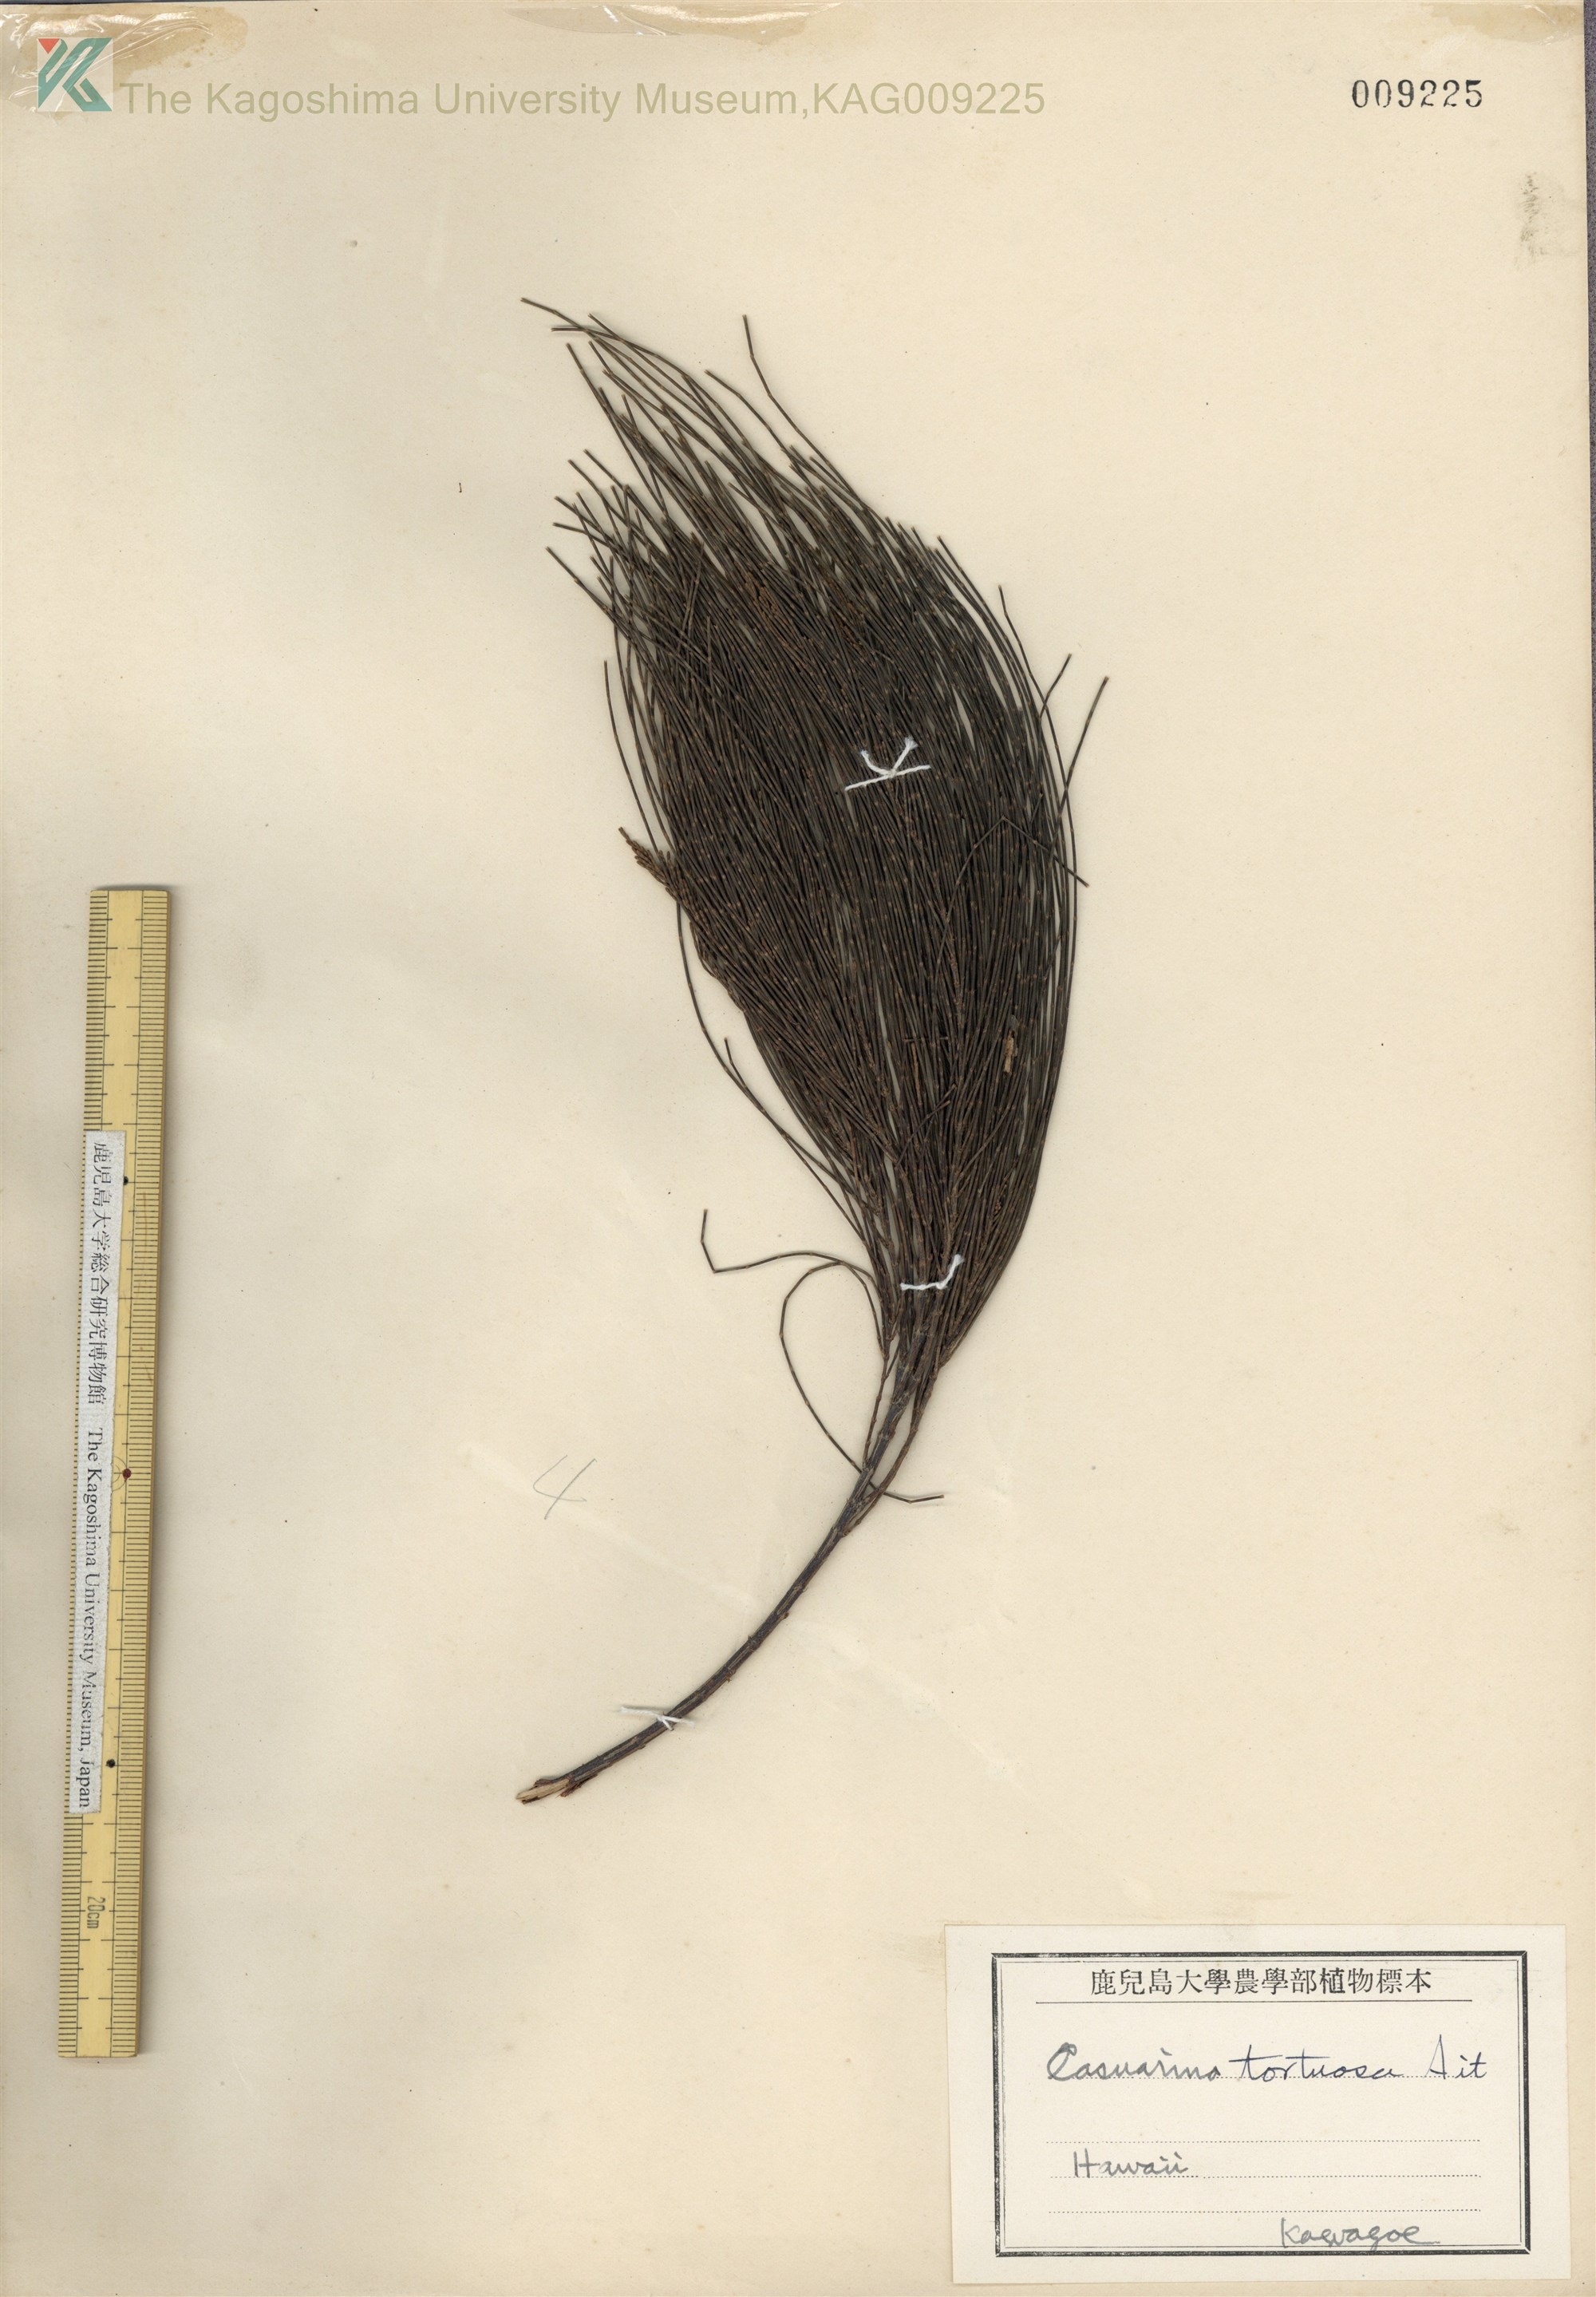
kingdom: Plantae
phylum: Tracheophyta
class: Magnoliopsida
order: Fagales
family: Casuarinaceae
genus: Allocasuarina
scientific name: Allocasuarina verticillata
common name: Drooping she-oak
